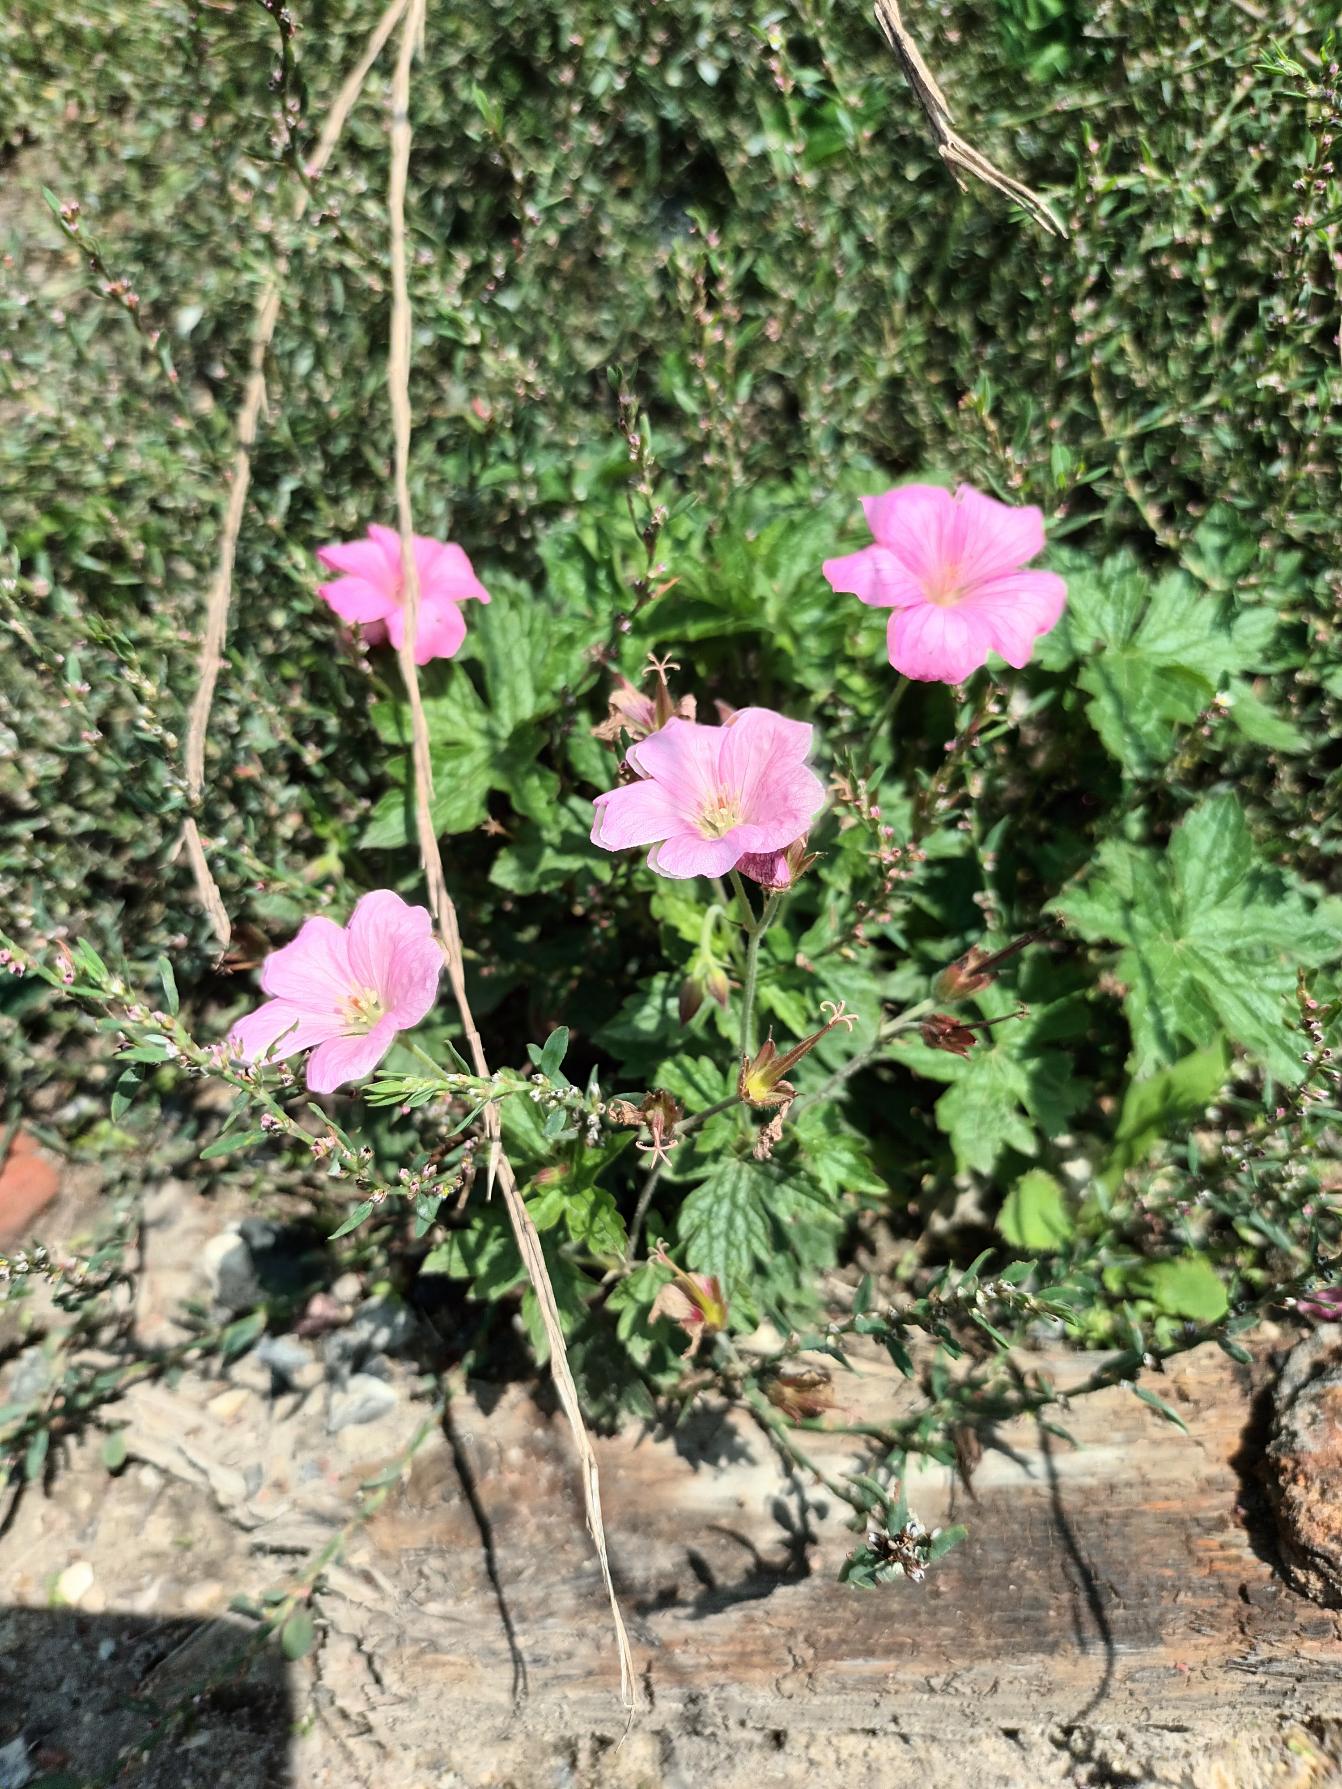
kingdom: Plantae
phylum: Tracheophyta
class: Magnoliopsida
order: Geraniales
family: Geraniaceae
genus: Geranium
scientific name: Geranium endressii
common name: Spansk storkenæb
